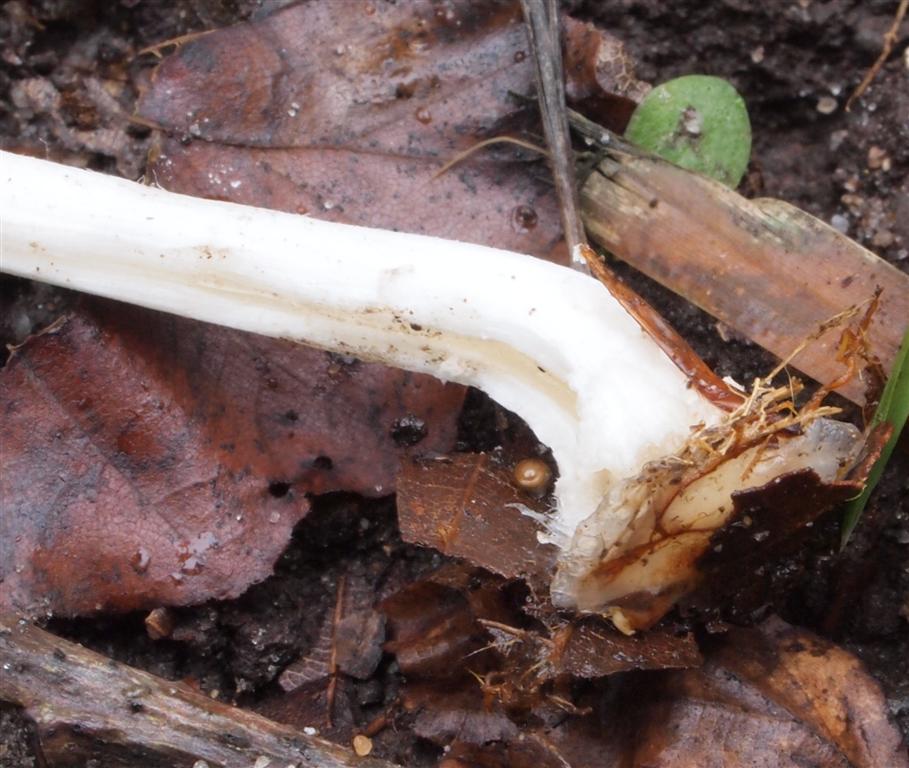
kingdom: Fungi
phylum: Basidiomycota
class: Agaricomycetes
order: Agaricales
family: Psathyrellaceae
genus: Coprinellus
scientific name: Coprinellus domesticus
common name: hus-blækhat
